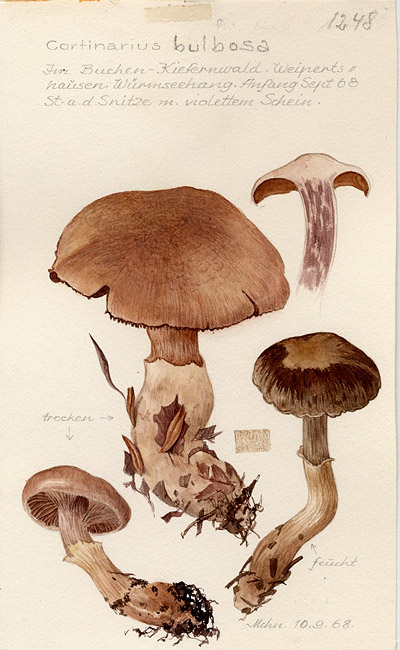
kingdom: Fungi
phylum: Basidiomycota
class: Agaricomycetes
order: Agaricales
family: Cortinariaceae
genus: Cortinarius
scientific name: Cortinarius bulbosus
